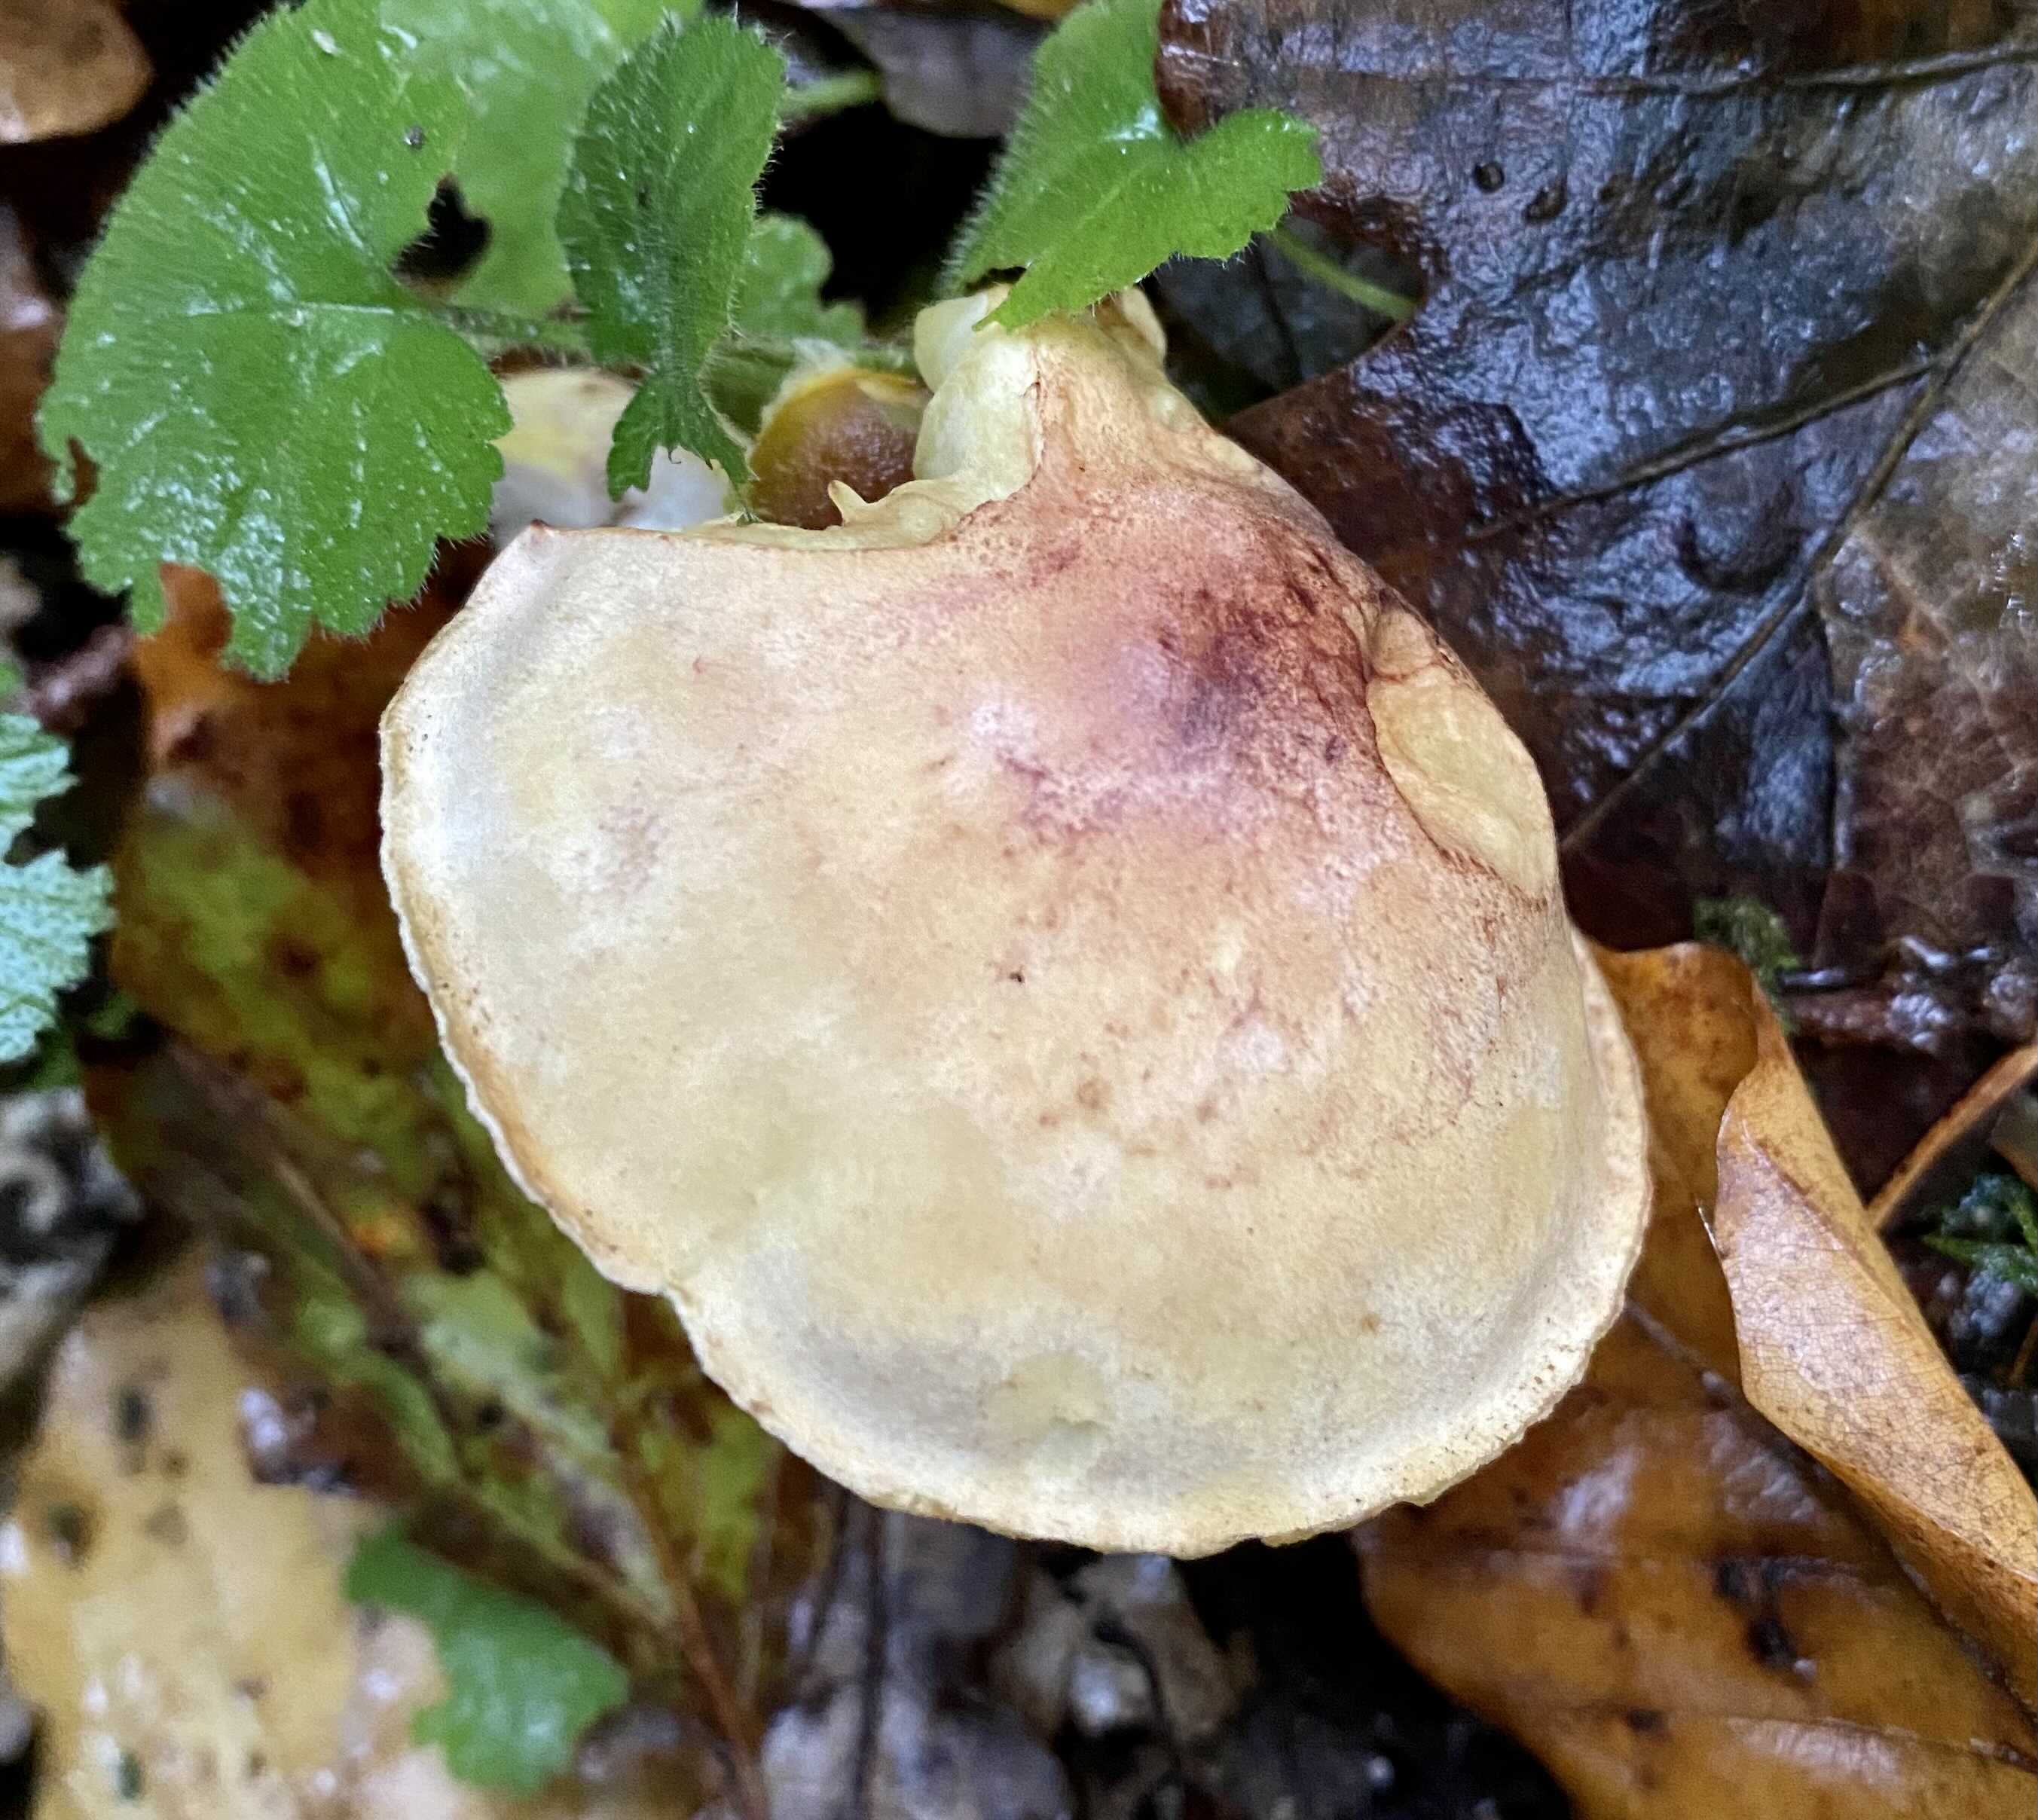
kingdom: Fungi
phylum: Basidiomycota
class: Agaricomycetes
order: Agaricales
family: Tricholomataceae
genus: Tricholoma
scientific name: Tricholoma sulphureum
